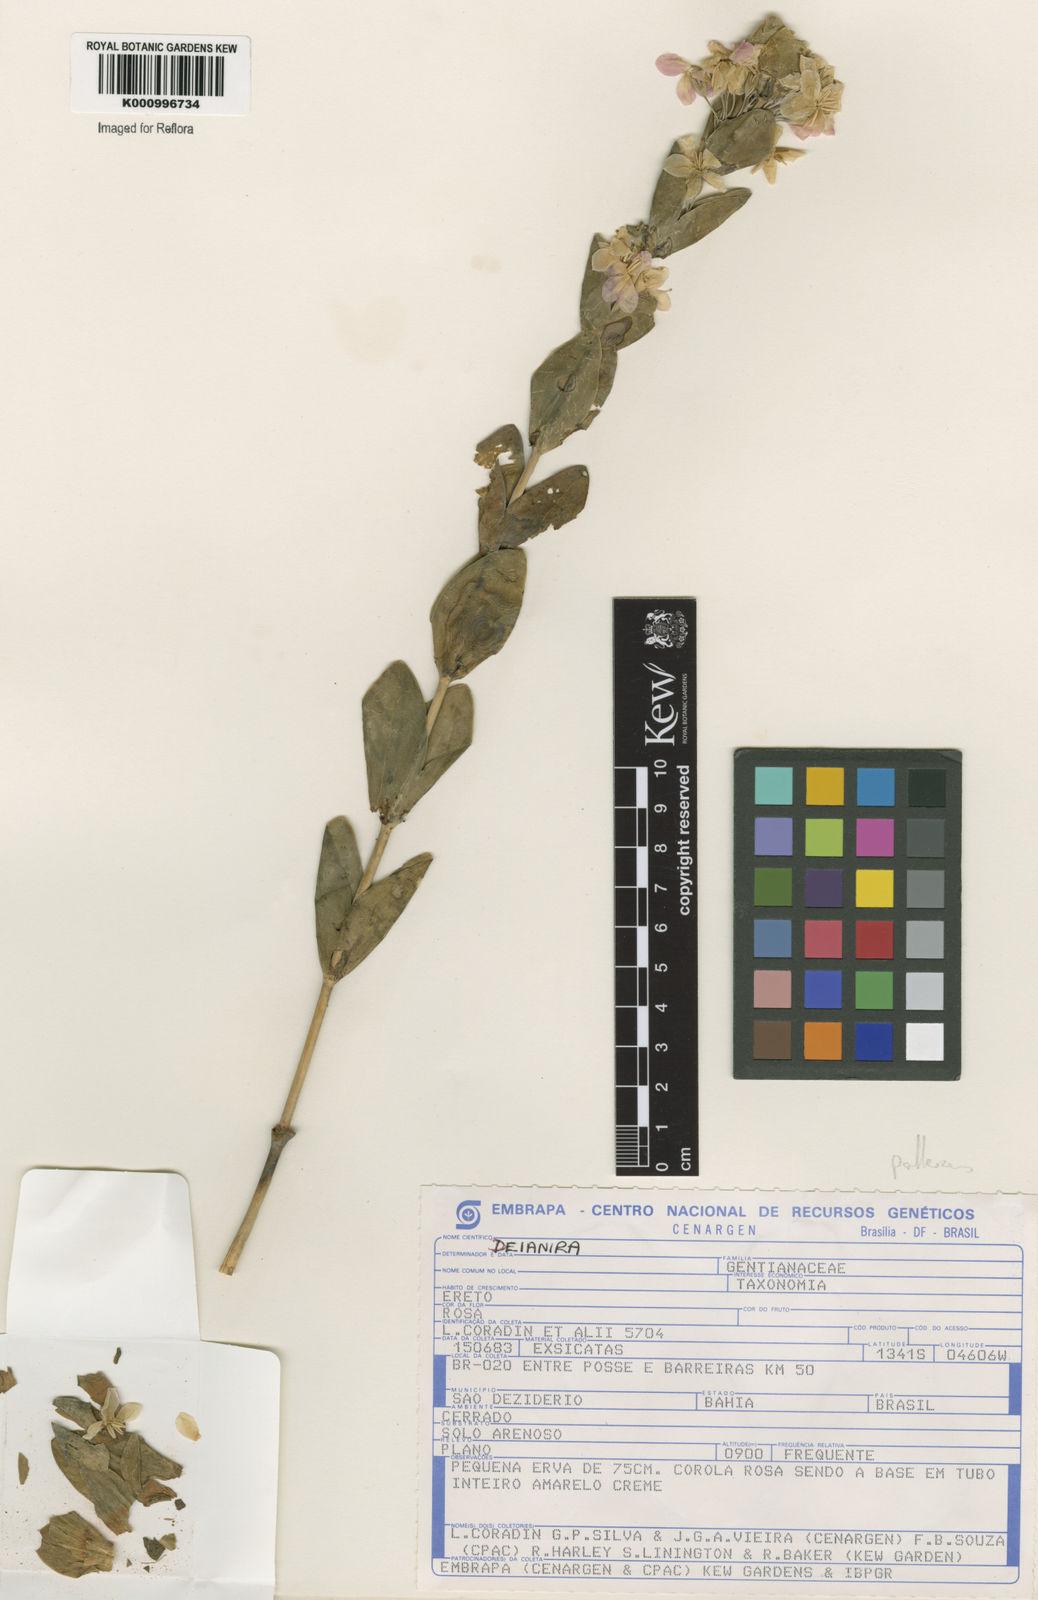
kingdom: Plantae
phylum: Tracheophyta
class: Magnoliopsida
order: Gentianales
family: Gentianaceae
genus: Deianira
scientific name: Deianira pallescens
